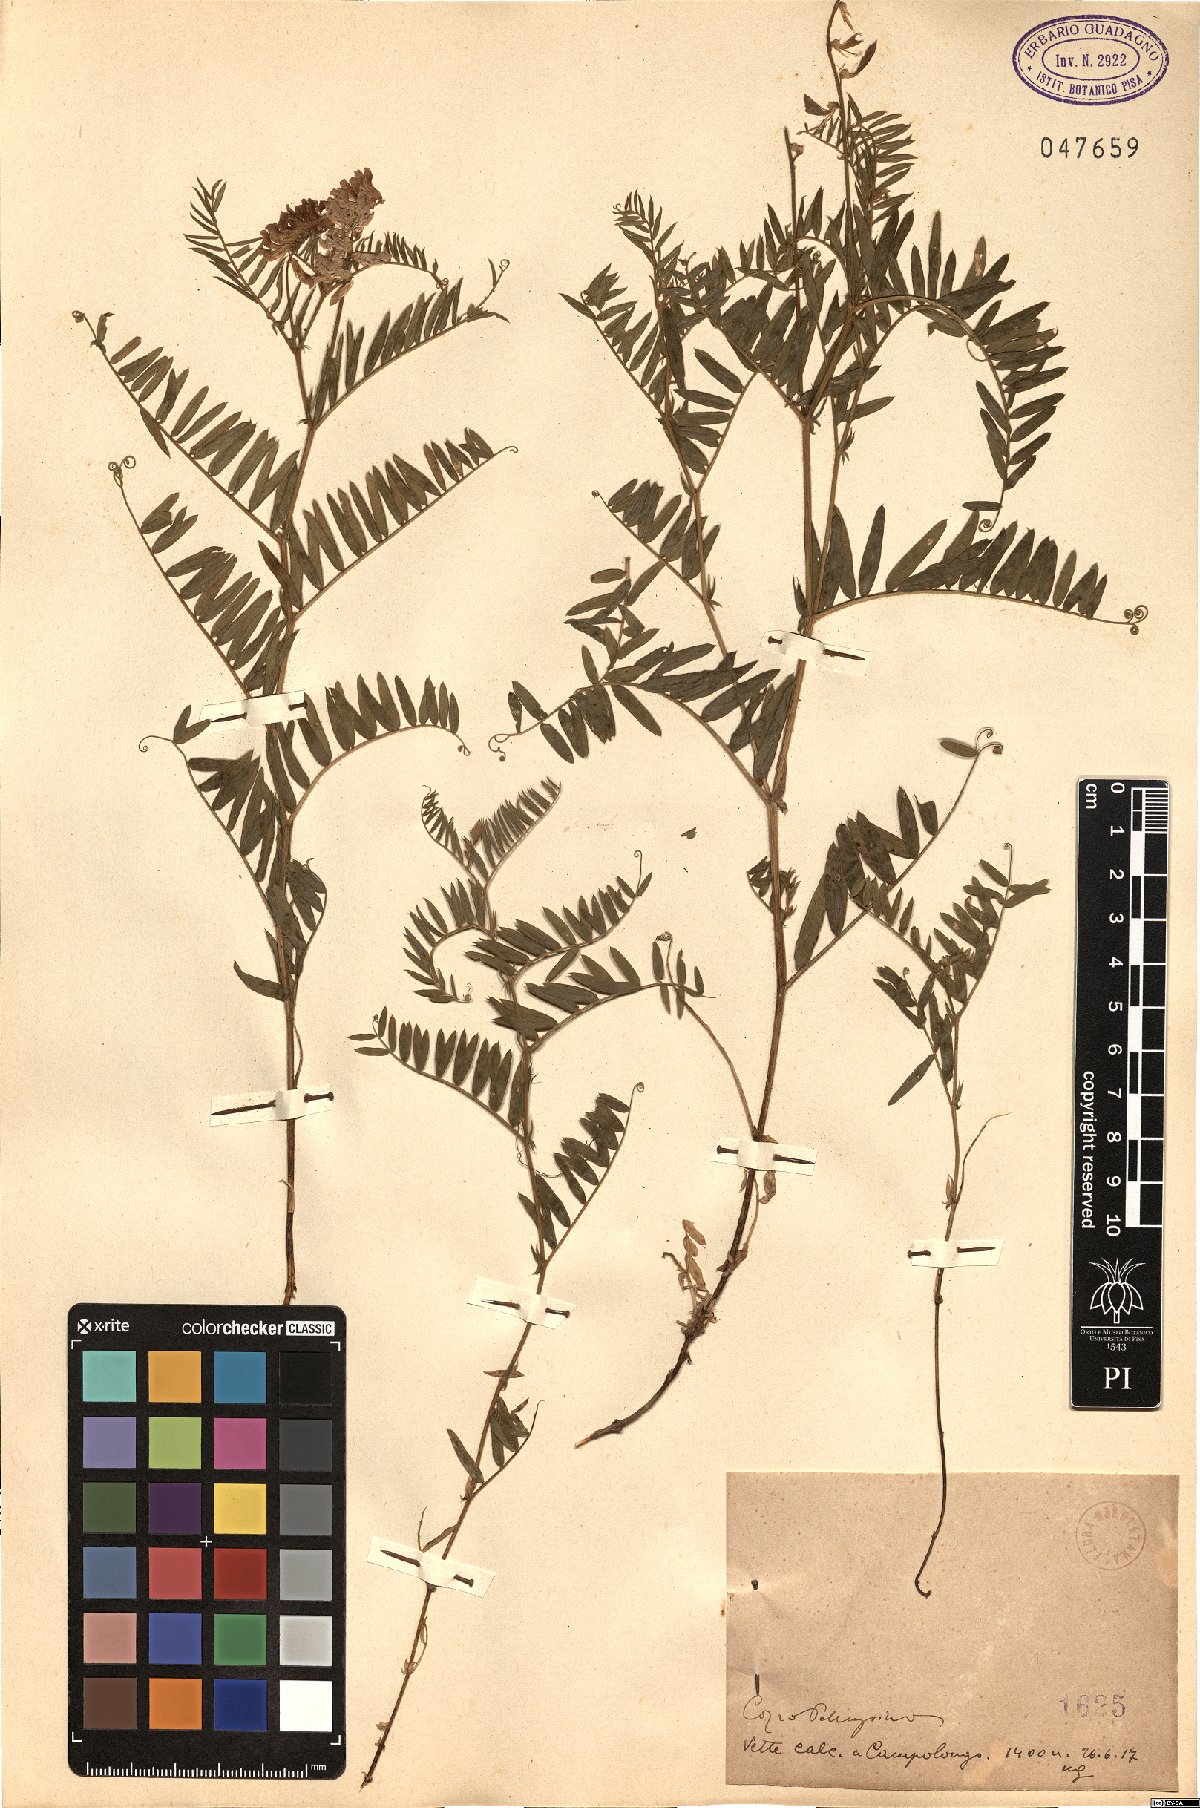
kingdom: Plantae
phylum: Tracheophyta
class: Magnoliopsida
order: Fabales
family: Fabaceae
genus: Vicia
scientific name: Vicia
